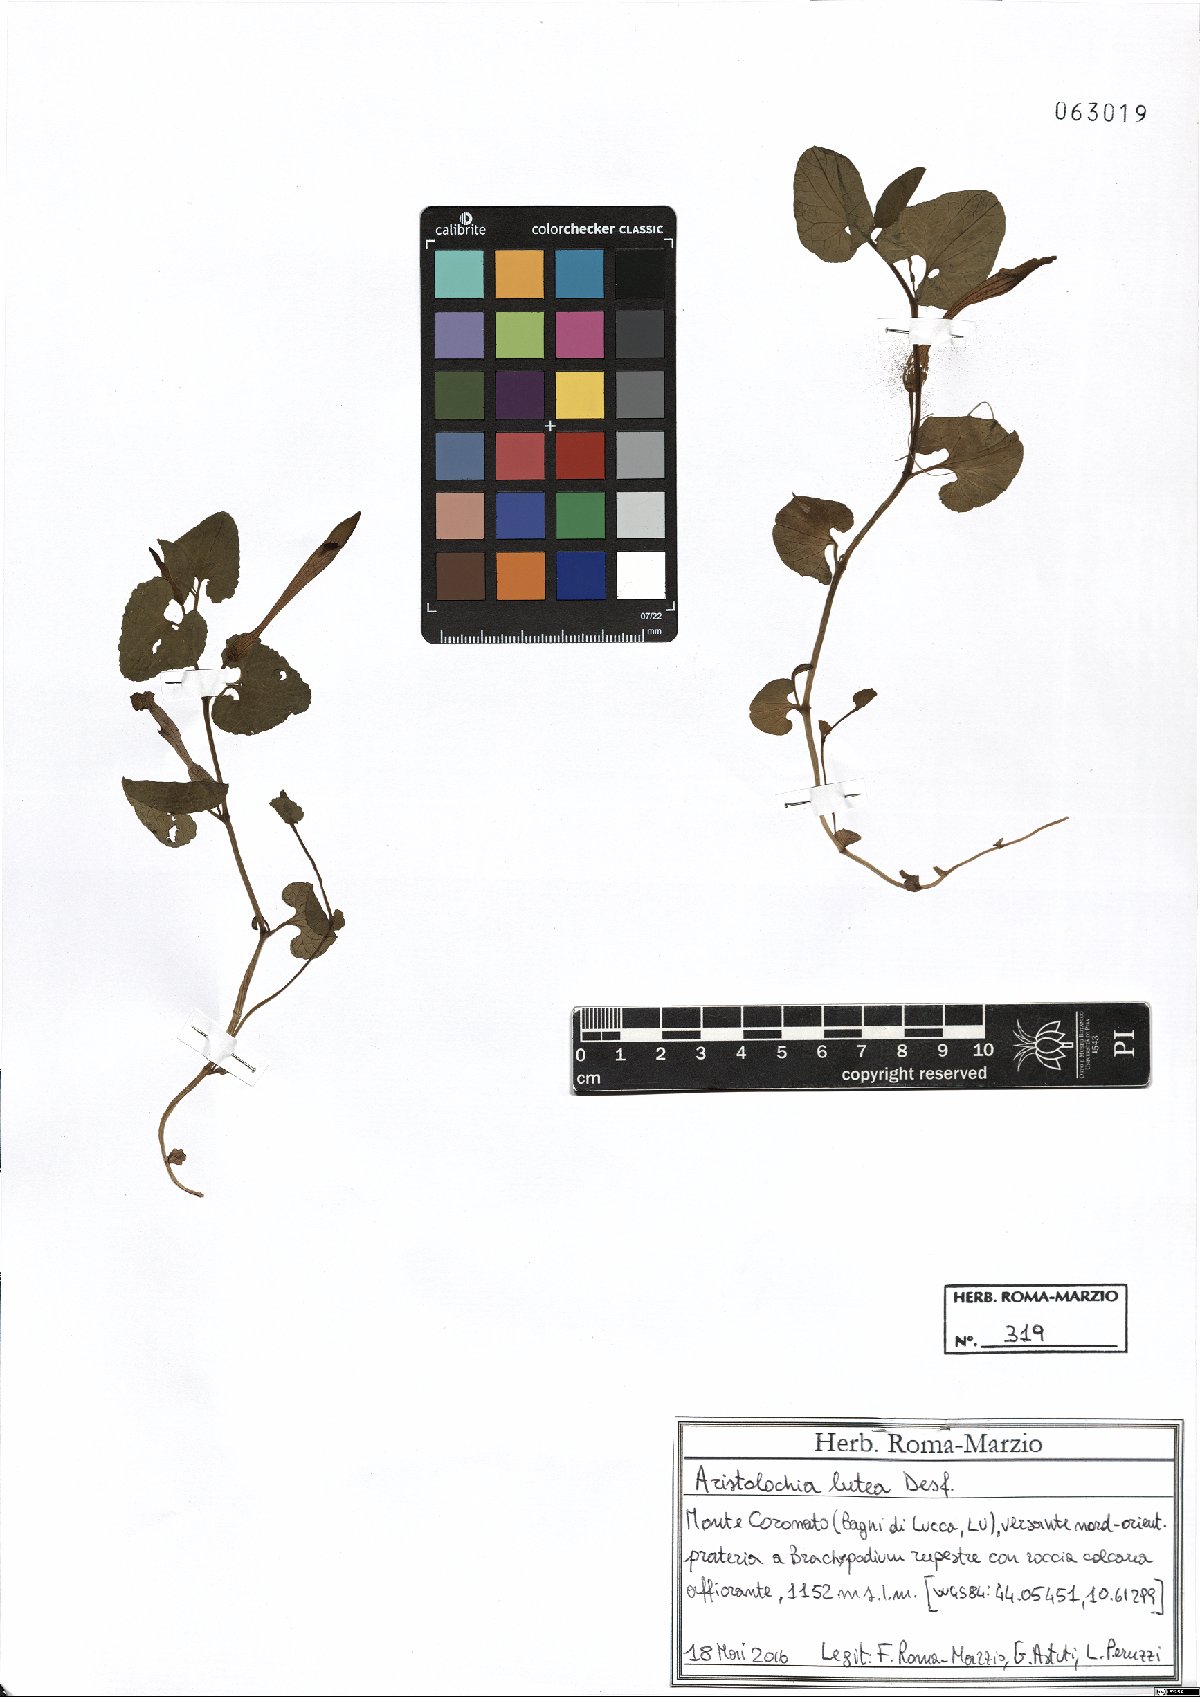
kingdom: Plantae
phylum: Tracheophyta
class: Magnoliopsida
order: Piperales
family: Aristolochiaceae
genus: Aristolochia
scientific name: Aristolochia lutea
